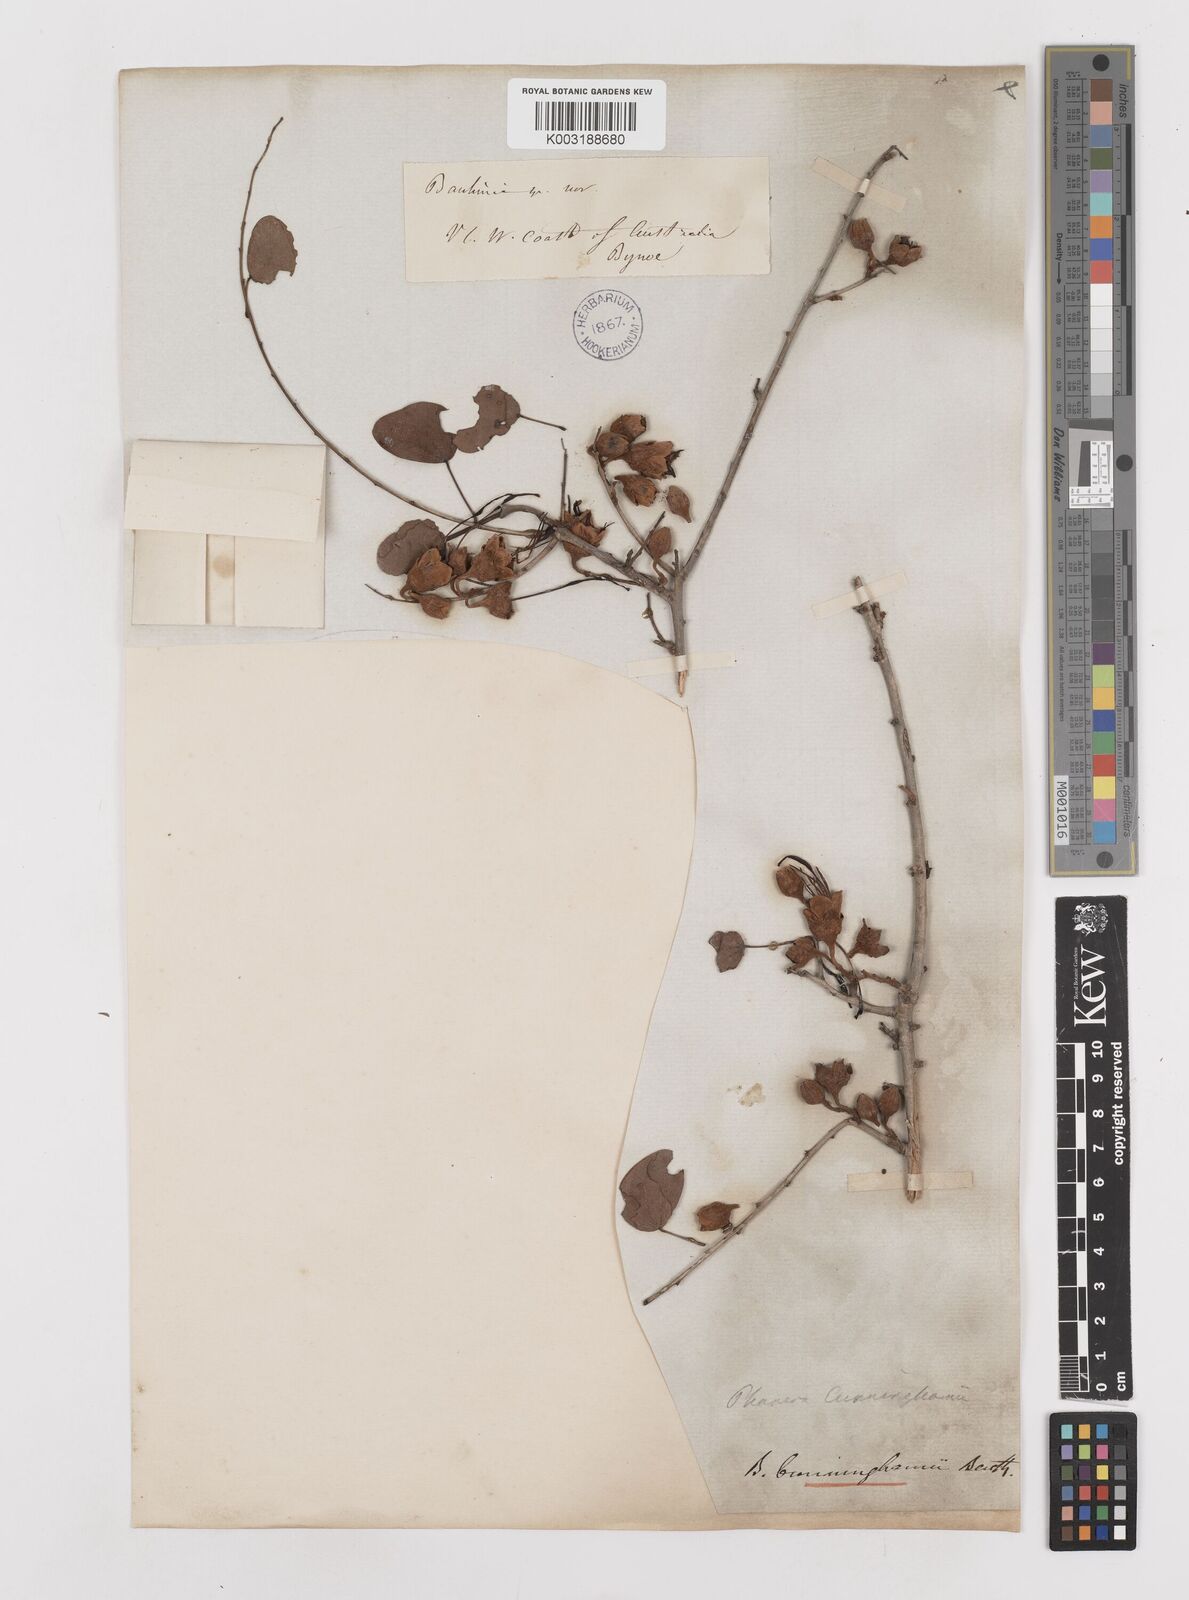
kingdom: Plantae
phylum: Tracheophyta
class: Magnoliopsida
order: Fabales
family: Fabaceae
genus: Lysiphyllum
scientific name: Lysiphyllum cunninghamii
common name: Kimberley bauhinia
